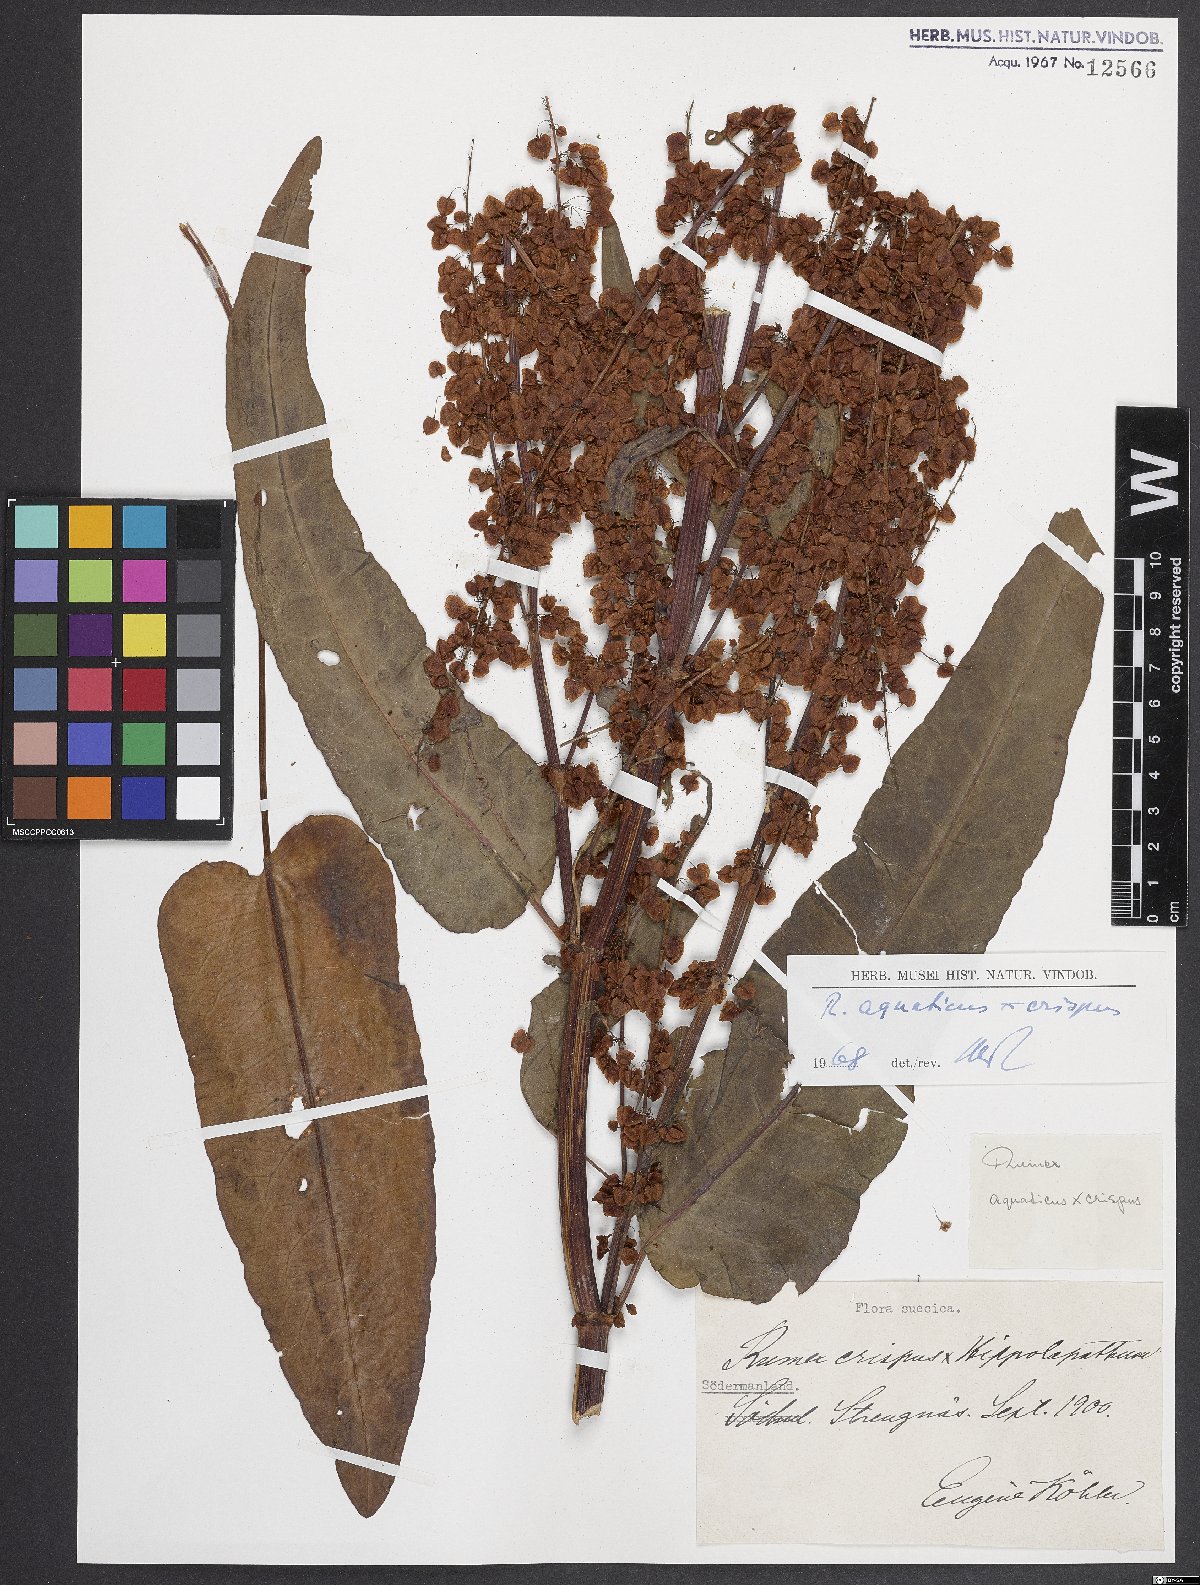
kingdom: Plantae
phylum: Tracheophyta
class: Magnoliopsida
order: Caryophyllales
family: Polygonaceae
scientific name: Polygonaceae
